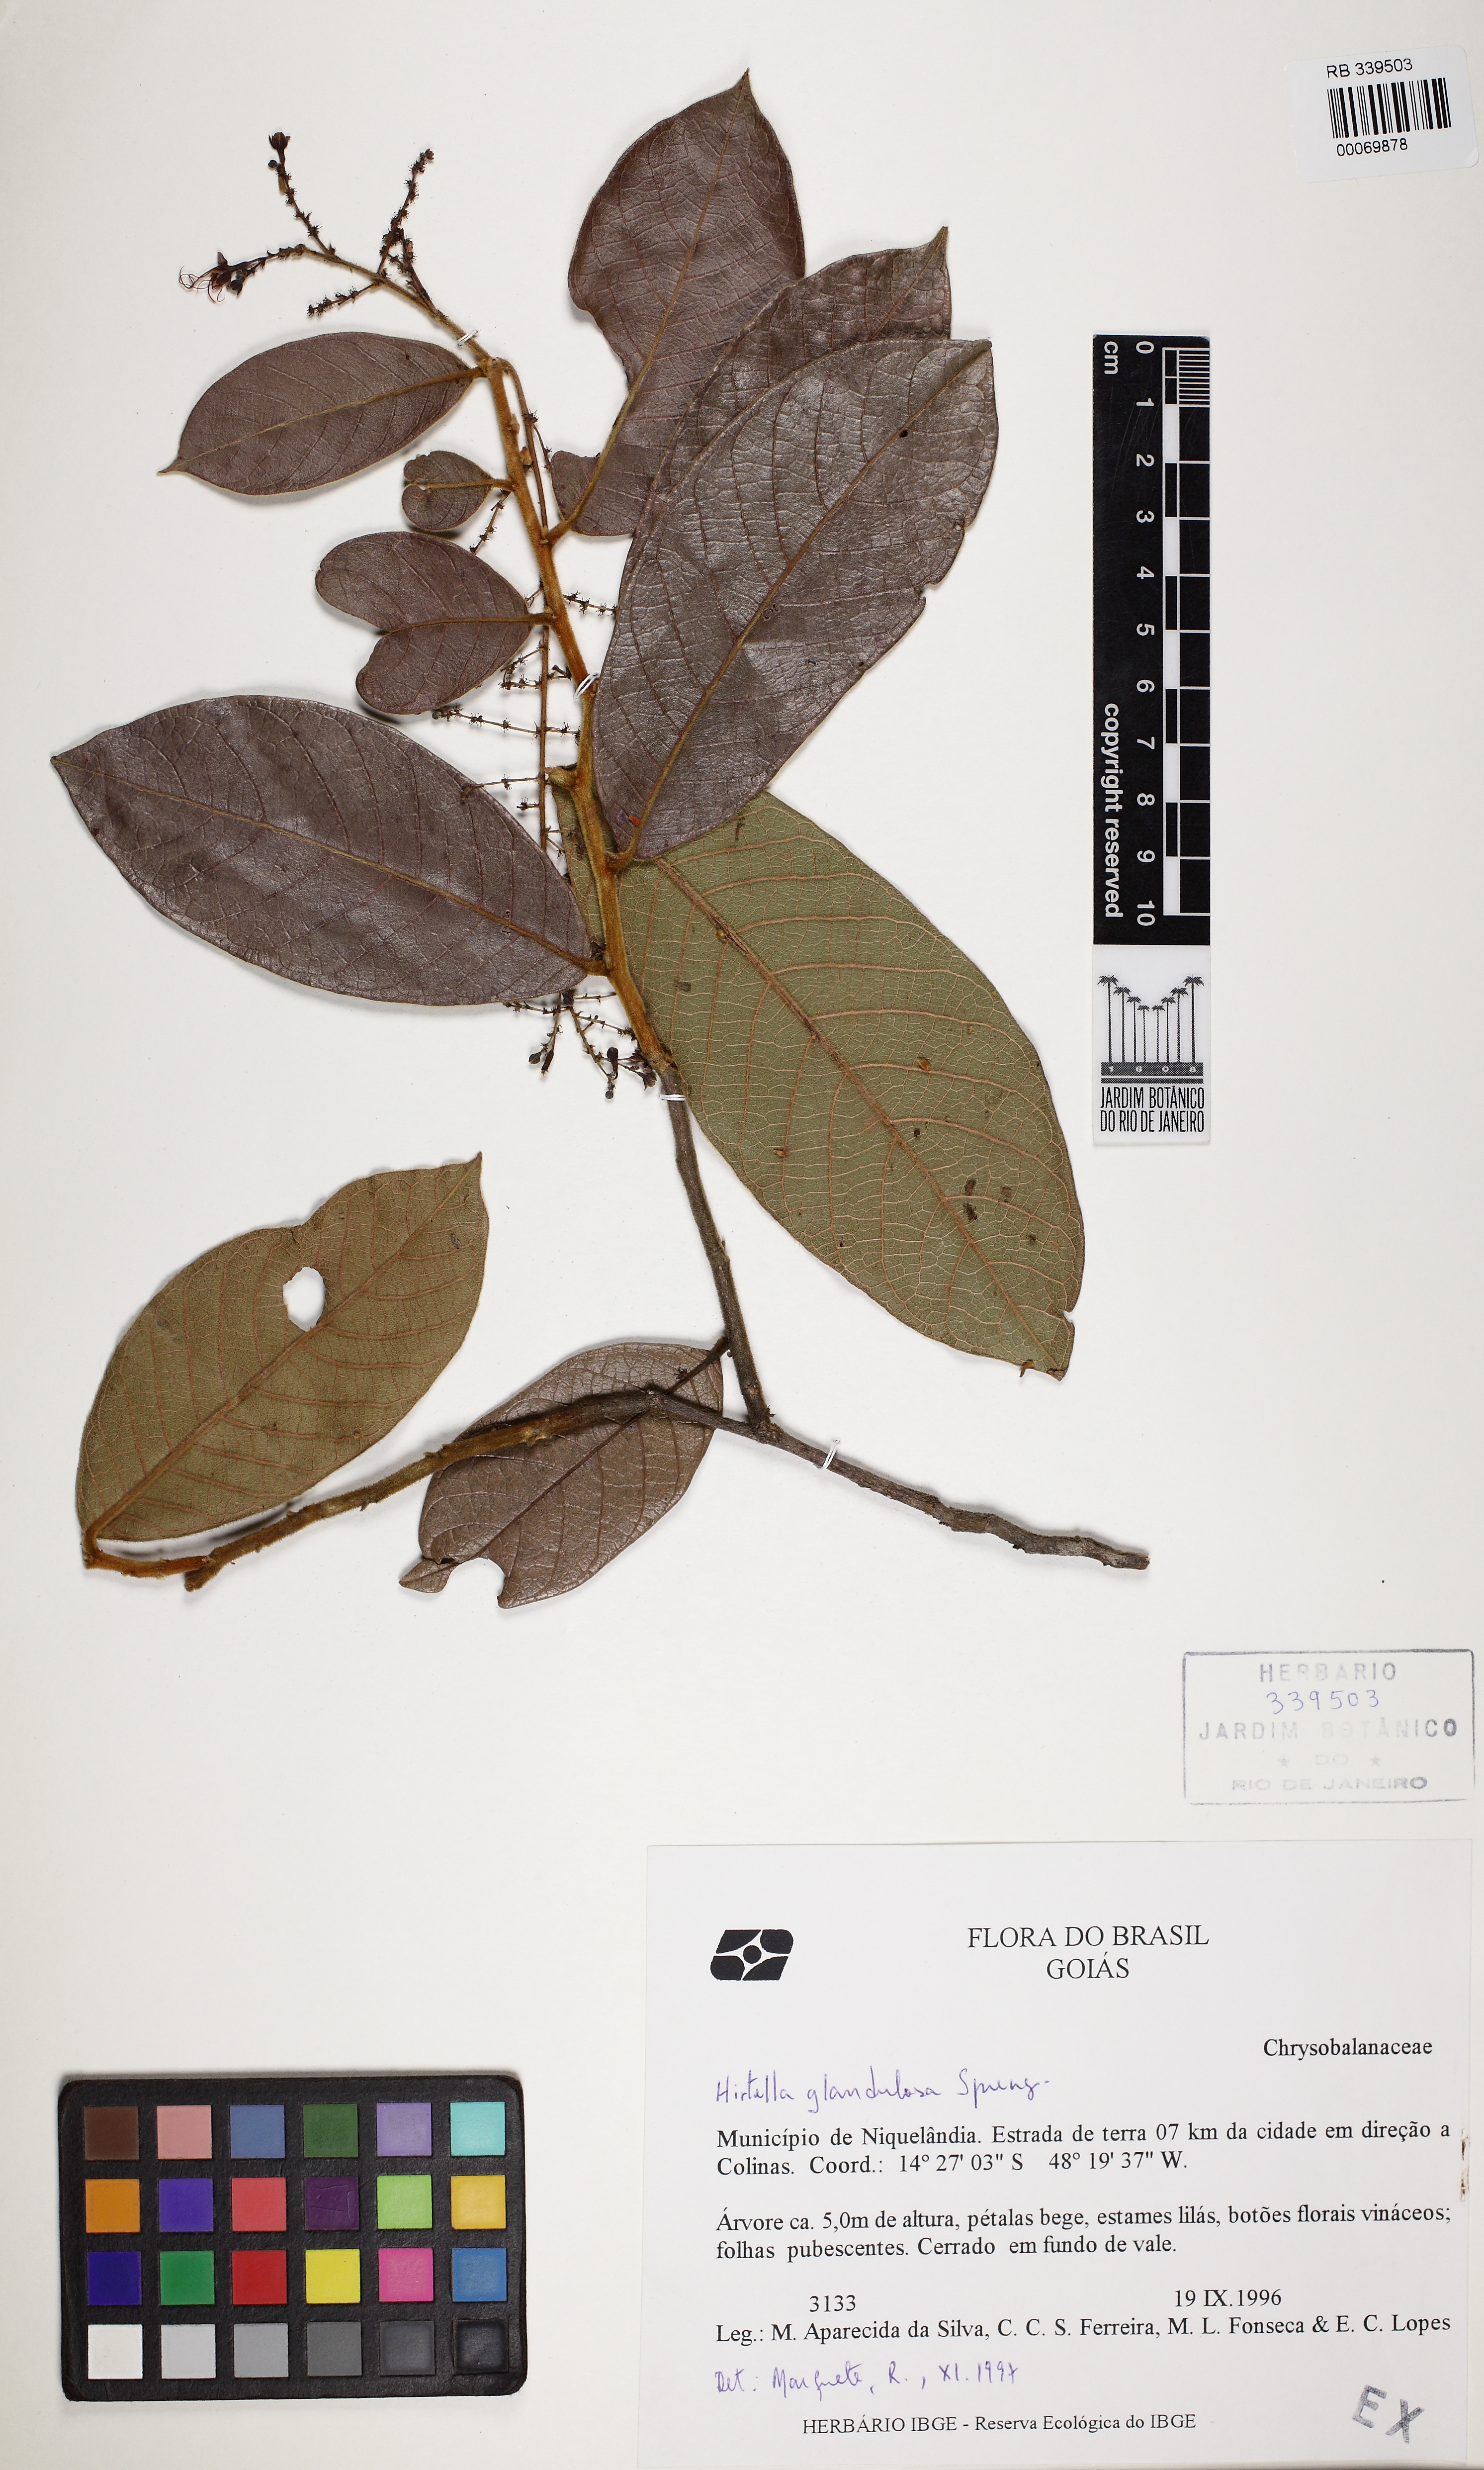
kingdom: Plantae
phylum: Tracheophyta
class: Magnoliopsida
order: Malpighiales
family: Chrysobalanaceae
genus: Hirtella
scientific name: Hirtella glandulosa
